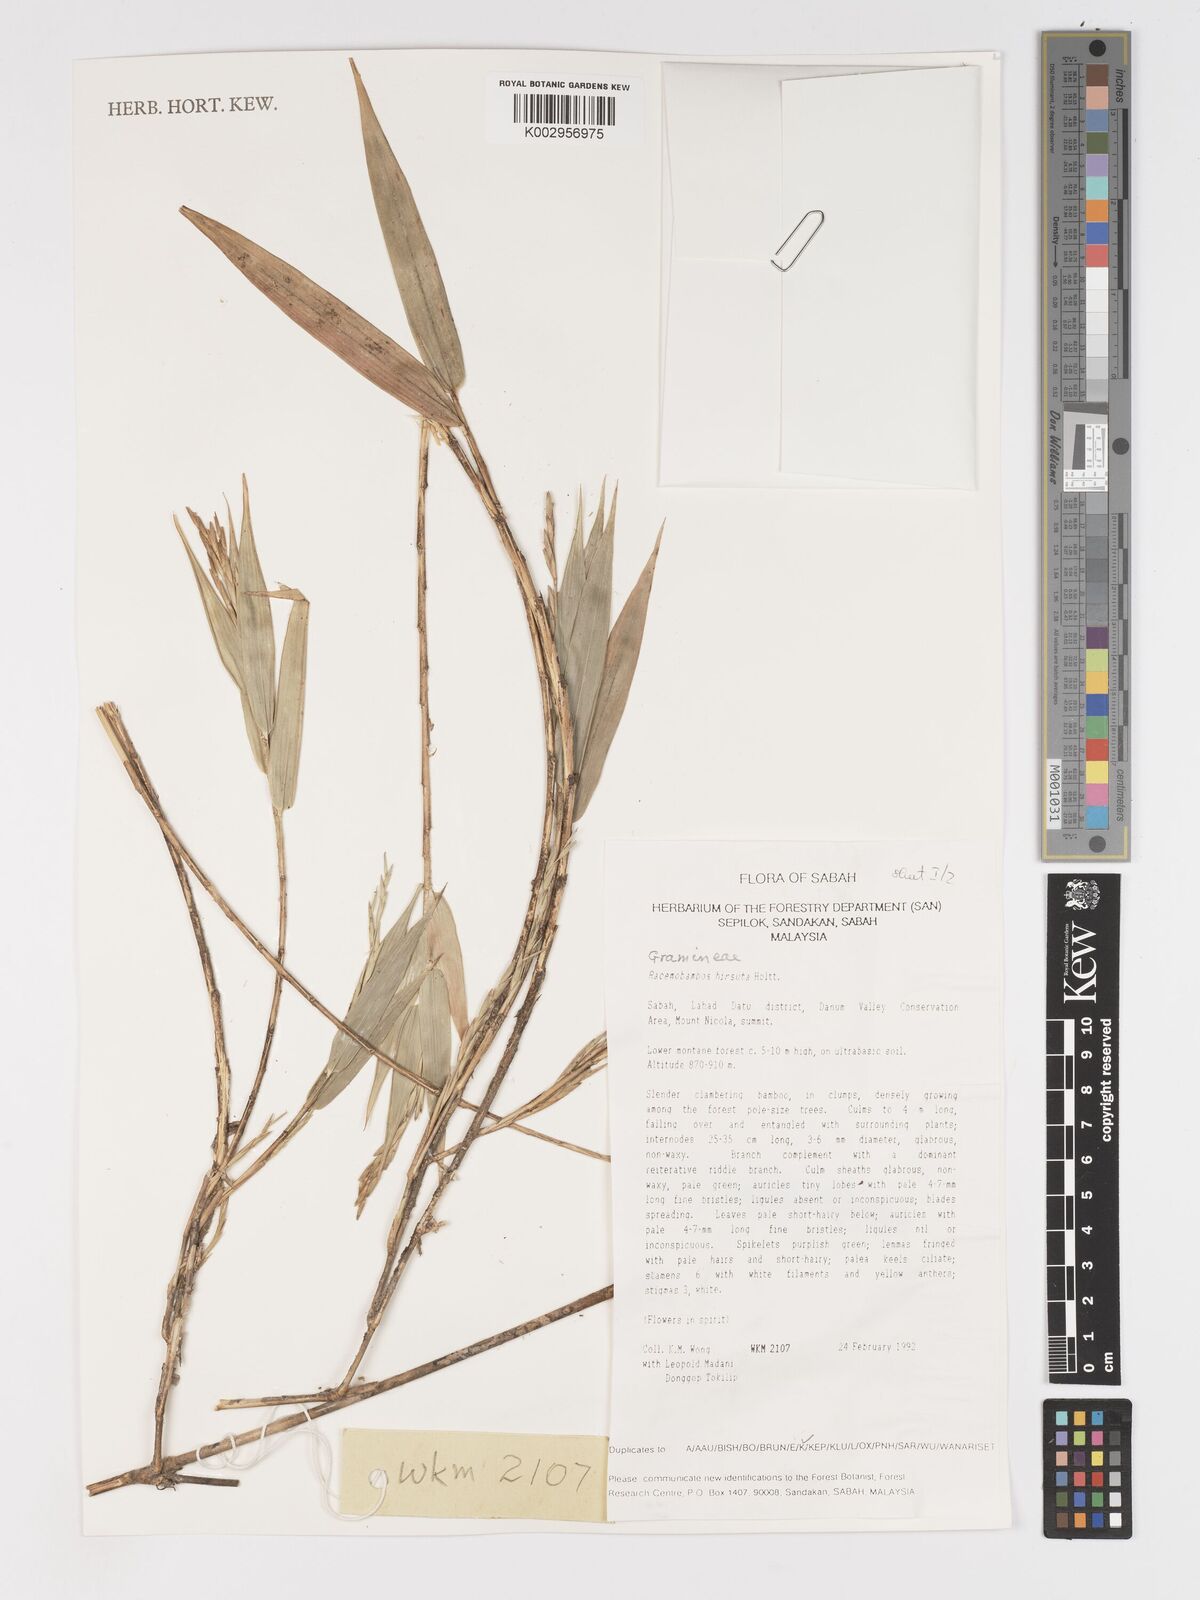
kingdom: Plantae
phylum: Tracheophyta
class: Liliopsida
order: Poales
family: Poaceae
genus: Racemobambos
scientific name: Racemobambos hirsuta
